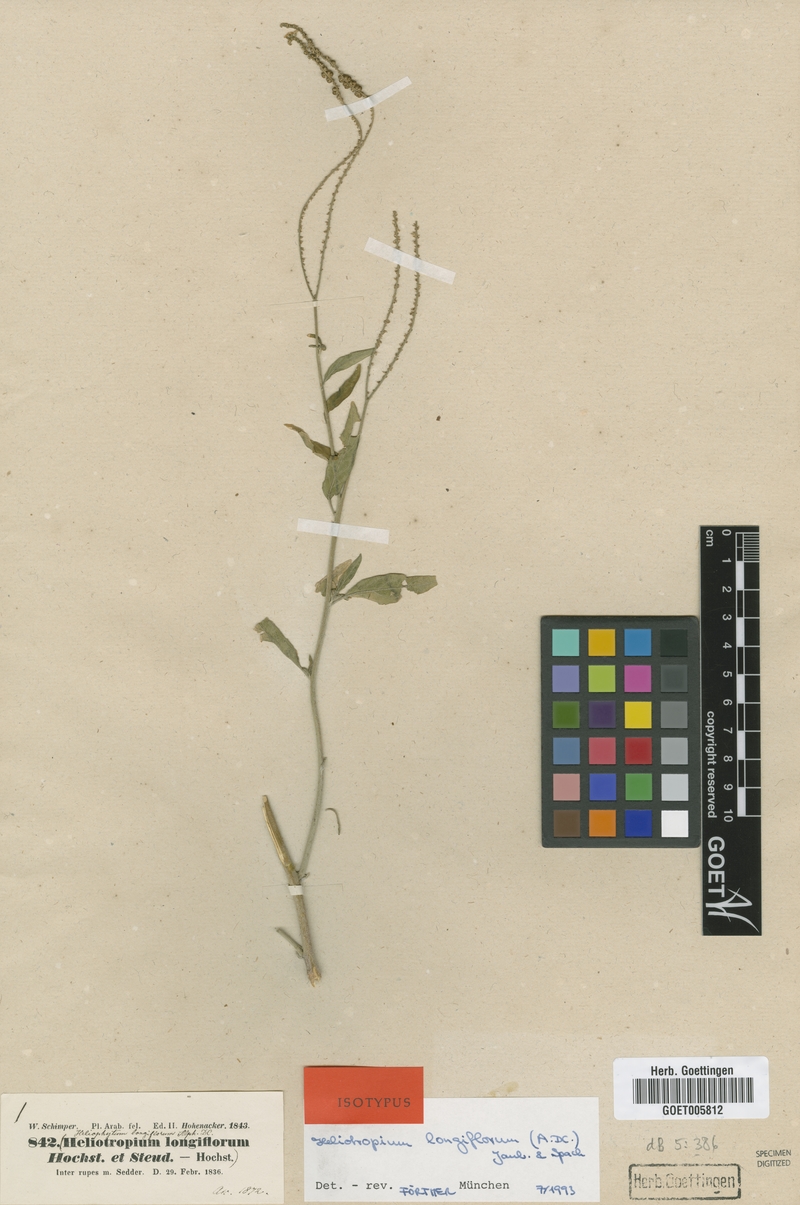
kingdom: Plantae
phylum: Tracheophyta
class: Magnoliopsida
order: Boraginales
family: Heliotropiaceae
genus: Heliotropium
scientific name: Heliotropium longiflorum
